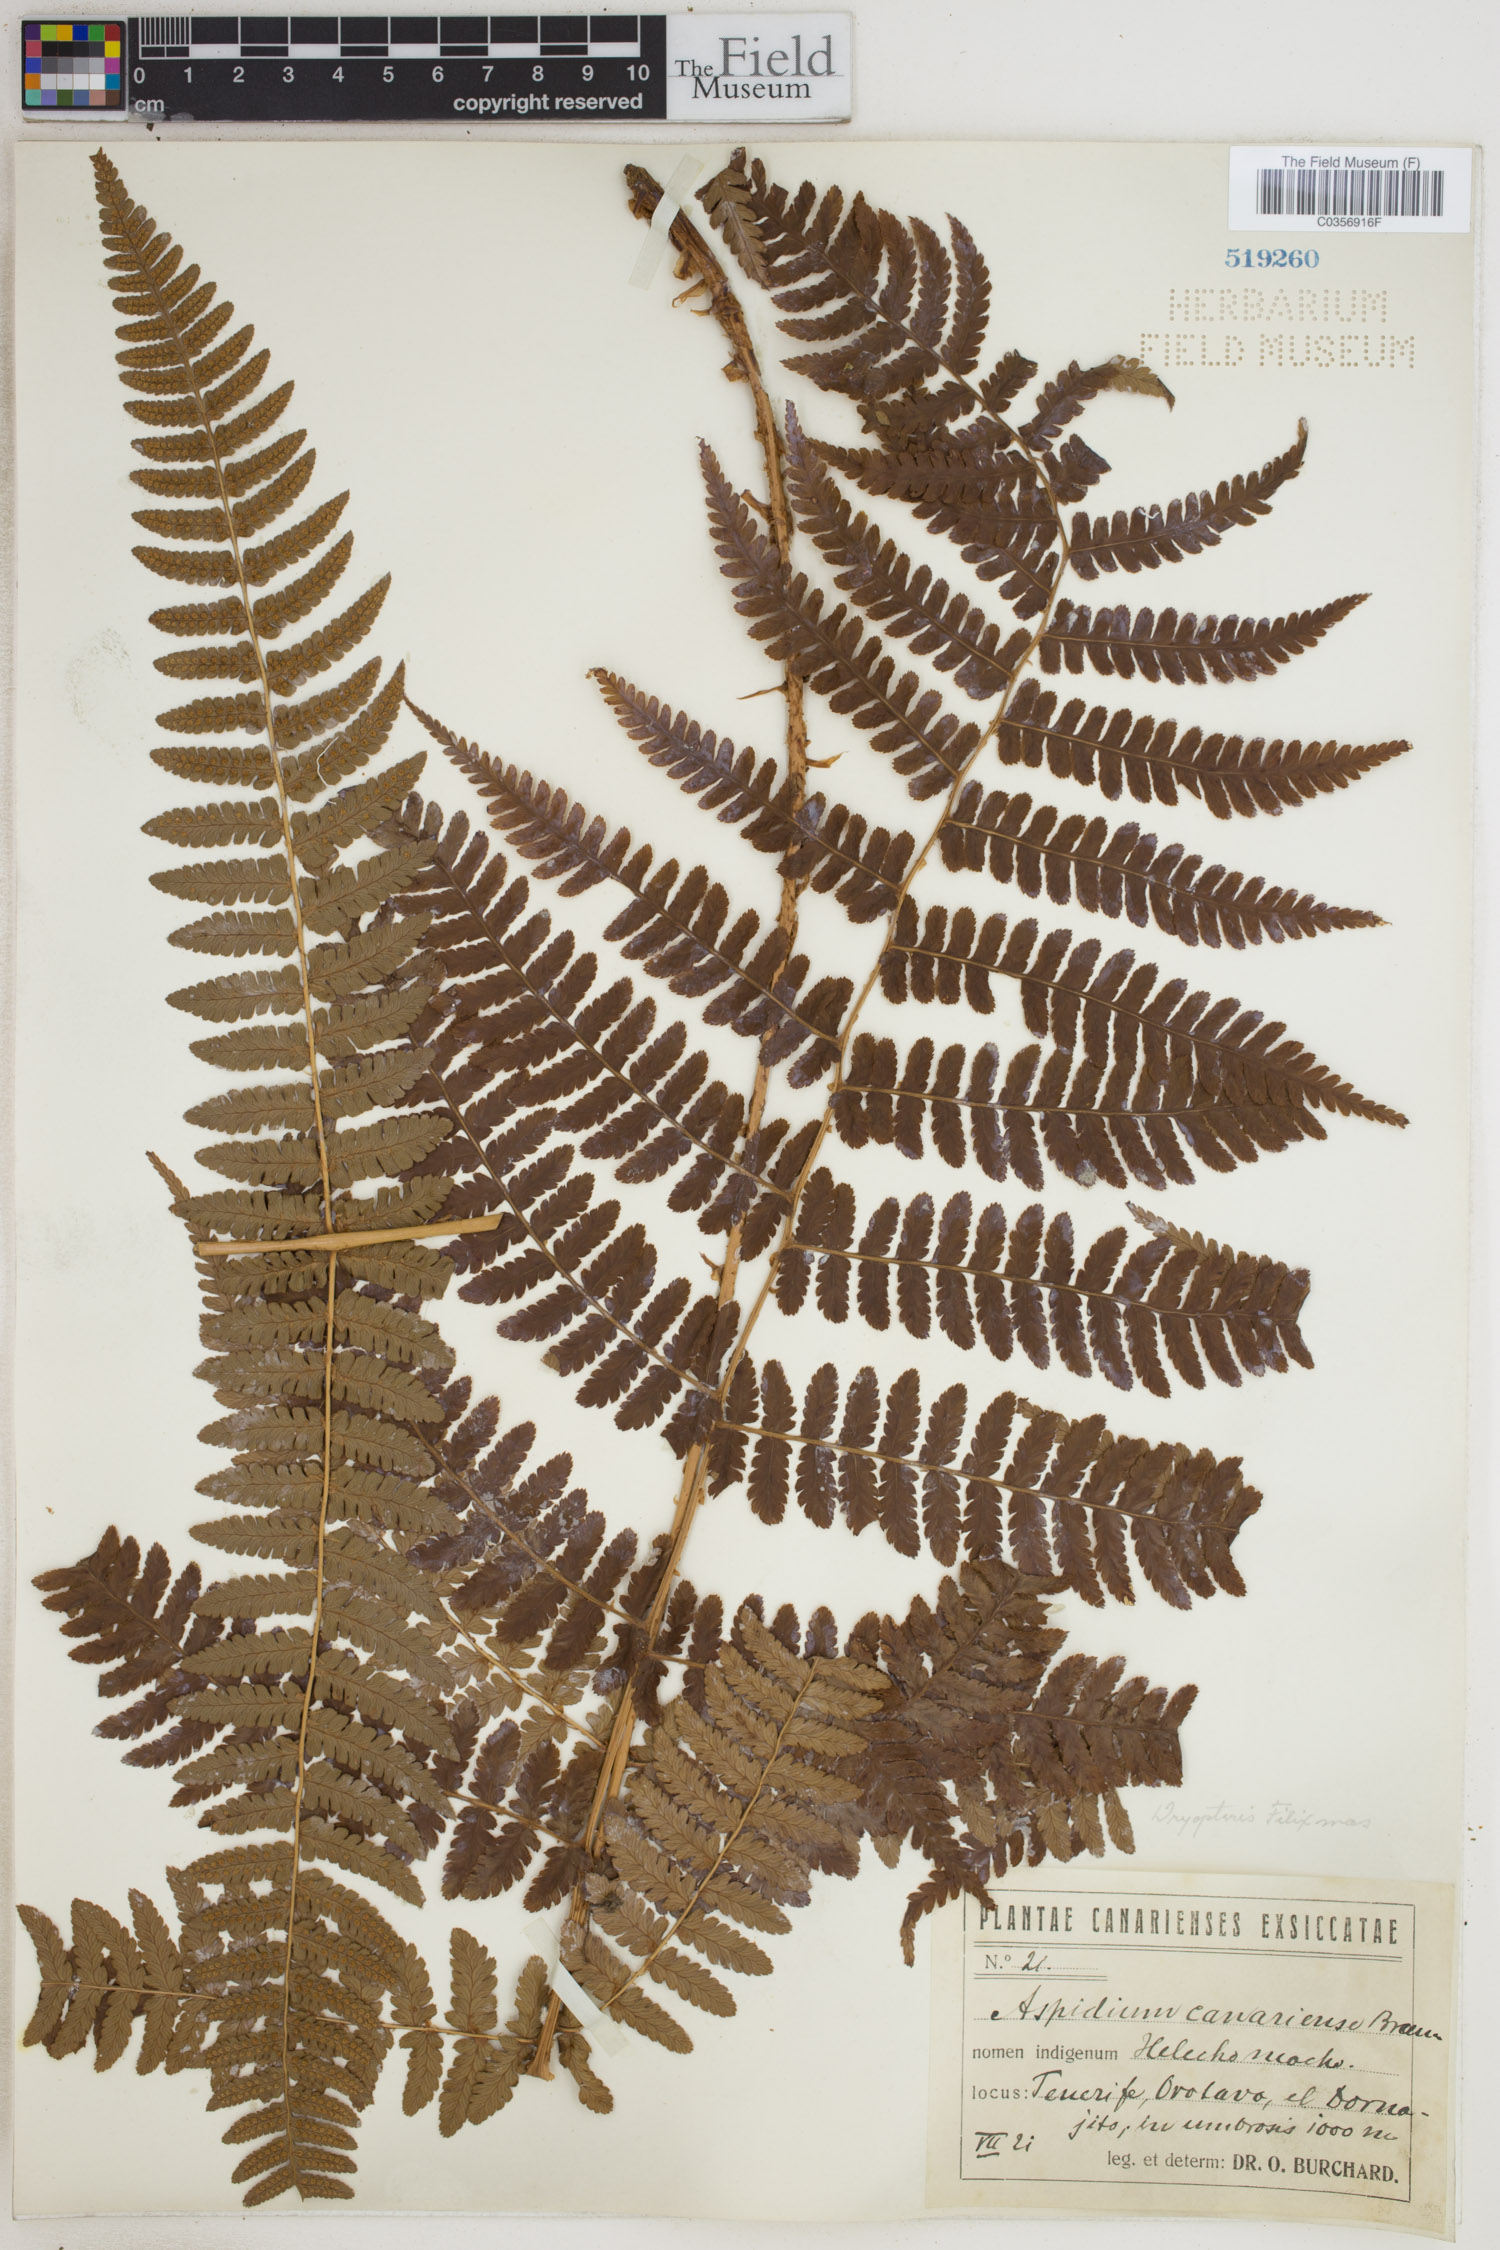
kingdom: Plantae
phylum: Tracheophyta
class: Polypodiopsida
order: Polypodiales
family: Dryopteridaceae
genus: Dryopteris
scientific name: Dryopteris filix-mas
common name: Male fern
